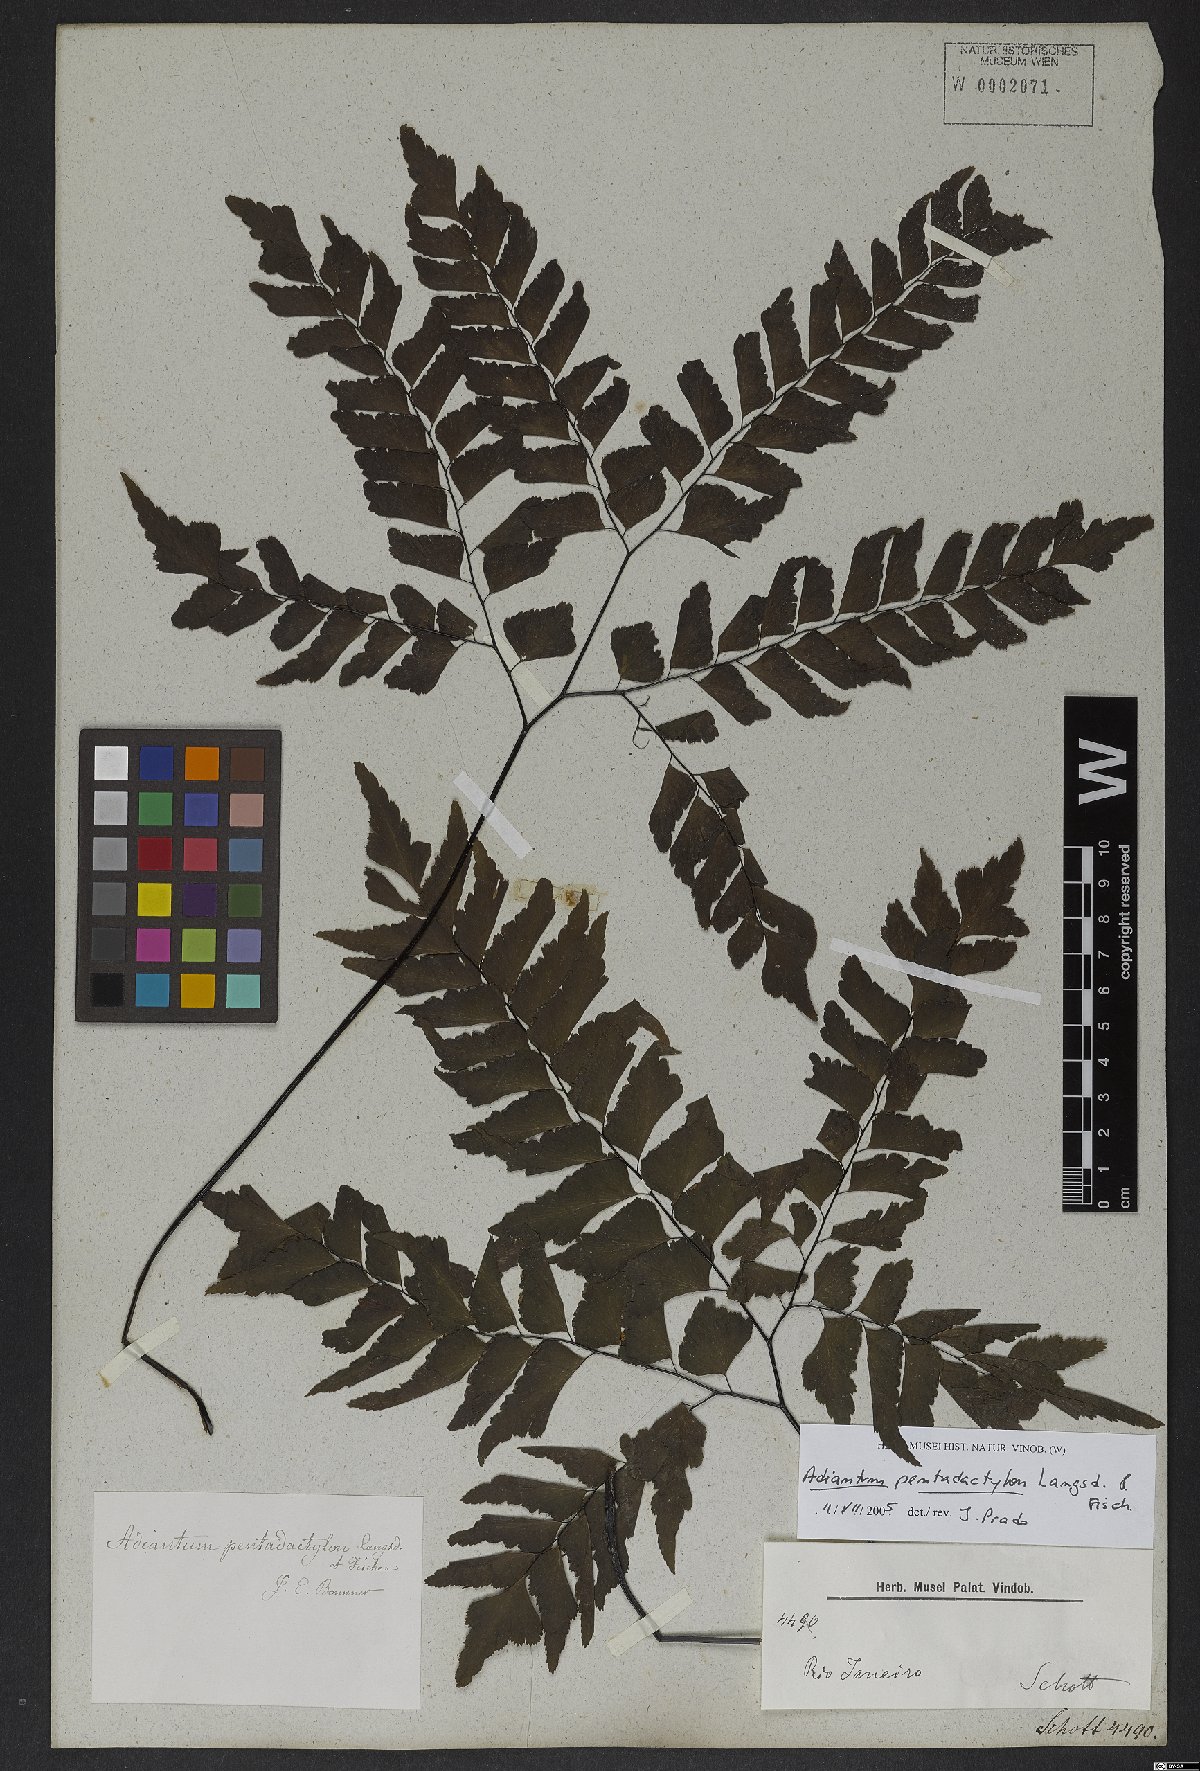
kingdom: Plantae
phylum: Tracheophyta
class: Polypodiopsida
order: Polypodiales
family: Pteridaceae
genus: Adiantum
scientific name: Adiantum pentadactylon
